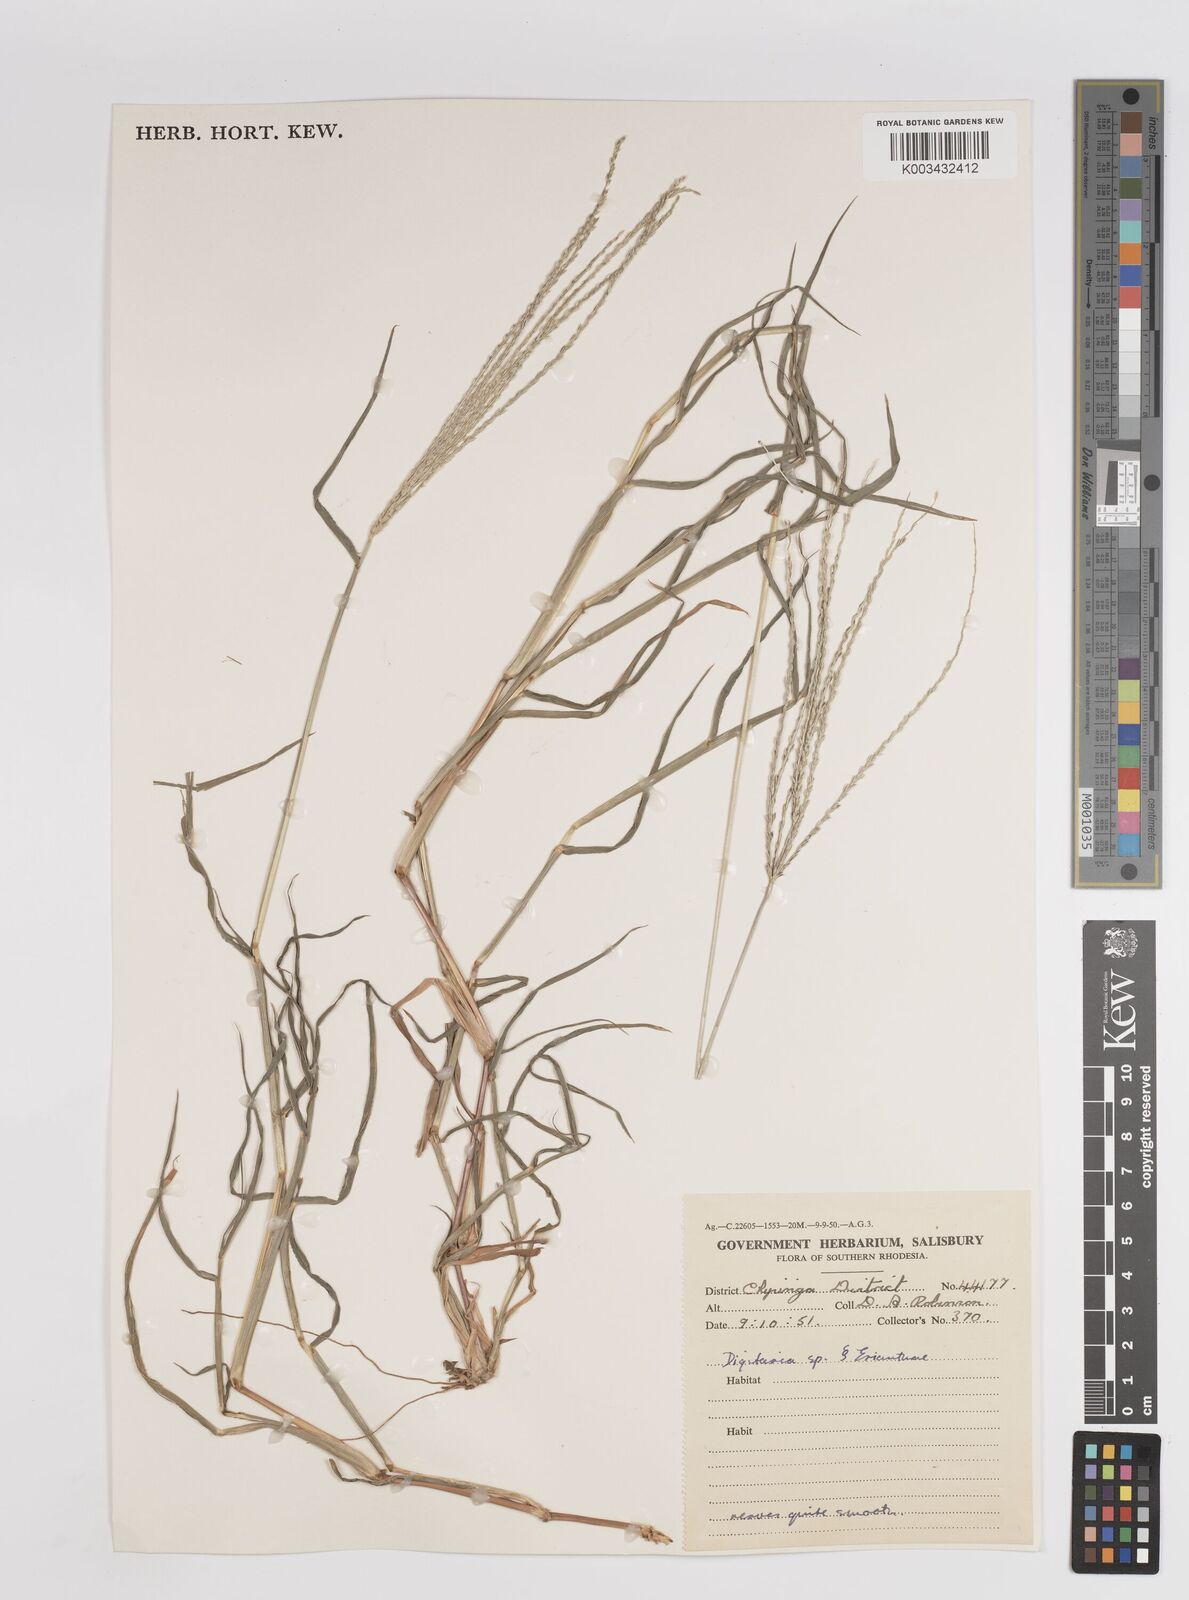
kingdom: Plantae
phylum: Tracheophyta
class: Liliopsida
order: Poales
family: Poaceae
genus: Digitaria
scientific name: Digitaria eriantha
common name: Digitgrass
